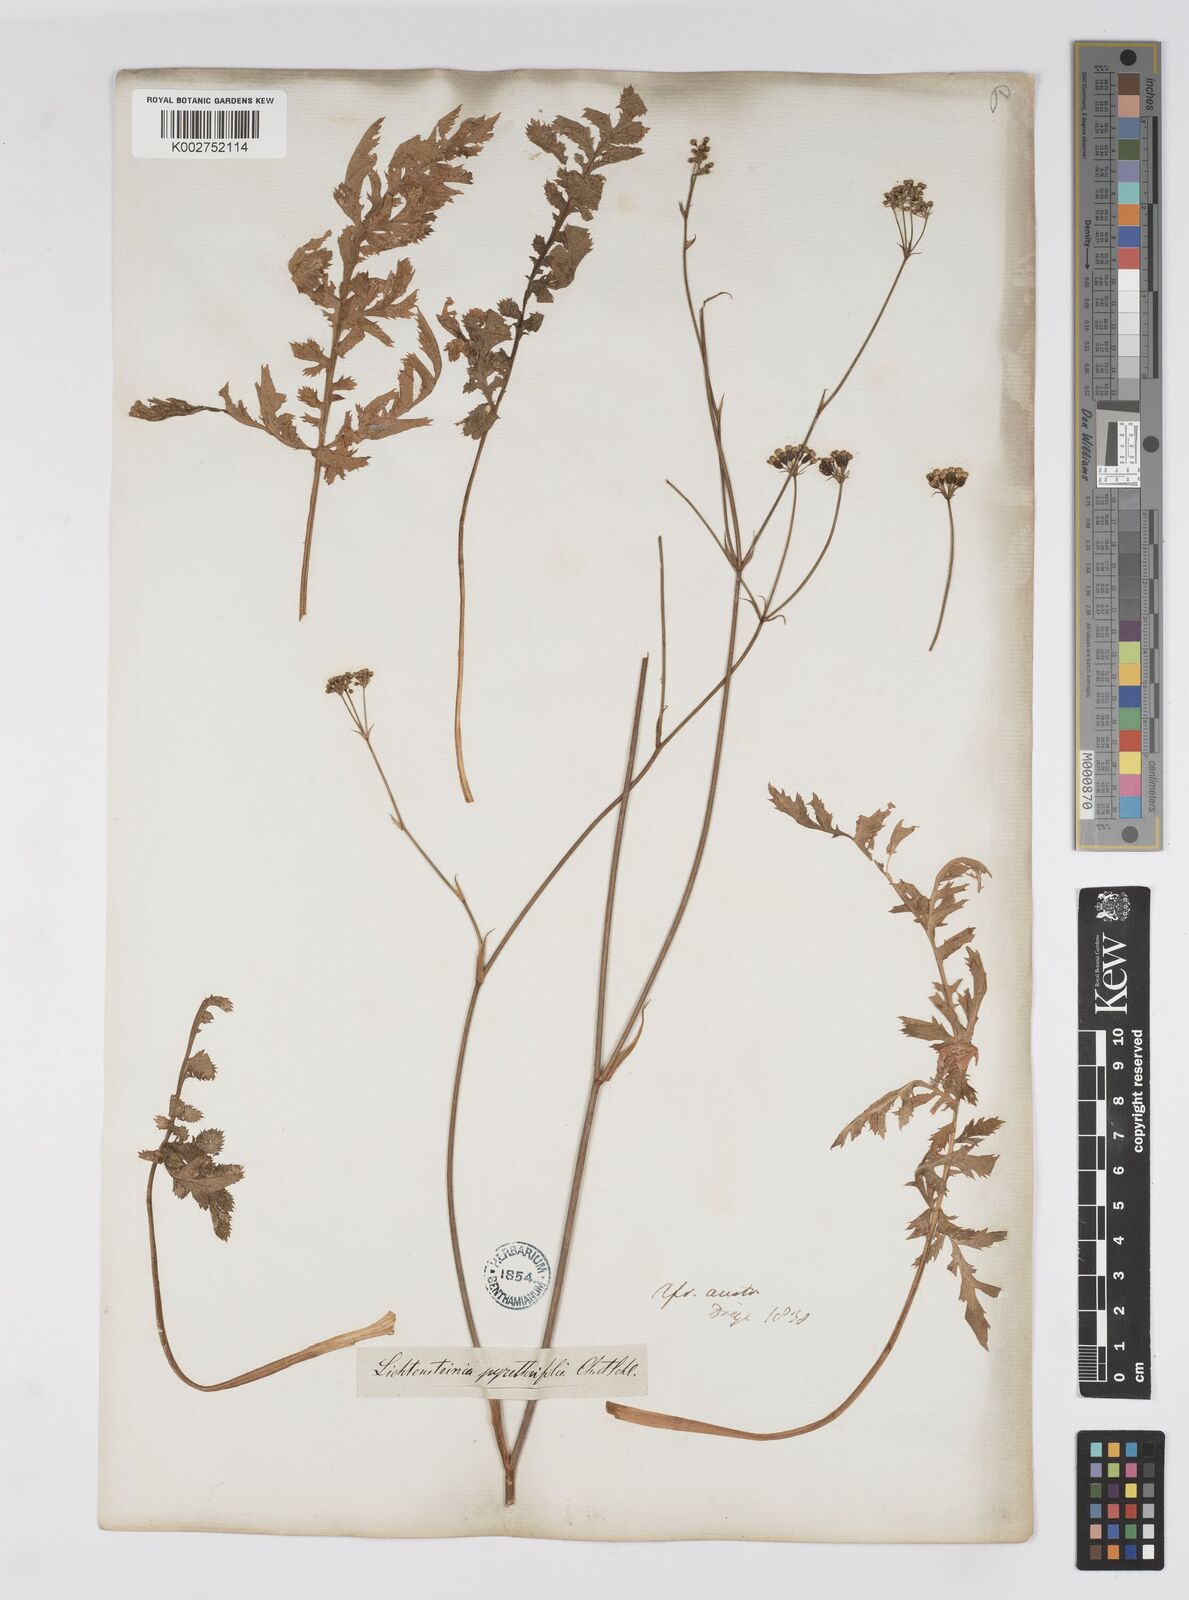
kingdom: Plantae
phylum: Tracheophyta
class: Magnoliopsida
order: Apiales
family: Apiaceae
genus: Lichtensteinia
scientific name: Lichtensteinia obscura
